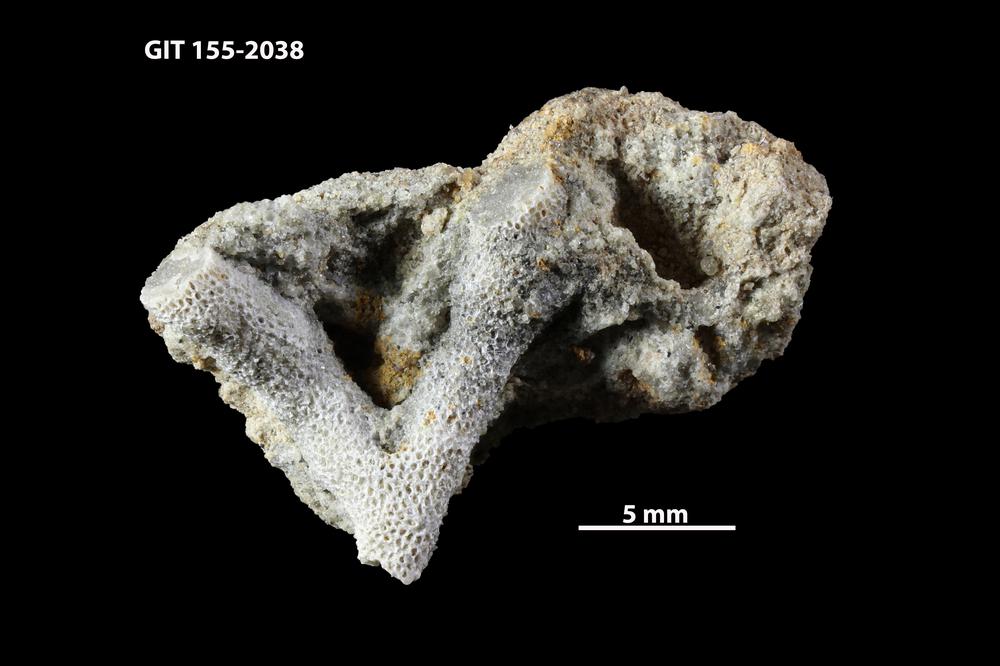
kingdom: Animalia
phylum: Bryozoa
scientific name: Bryozoa
